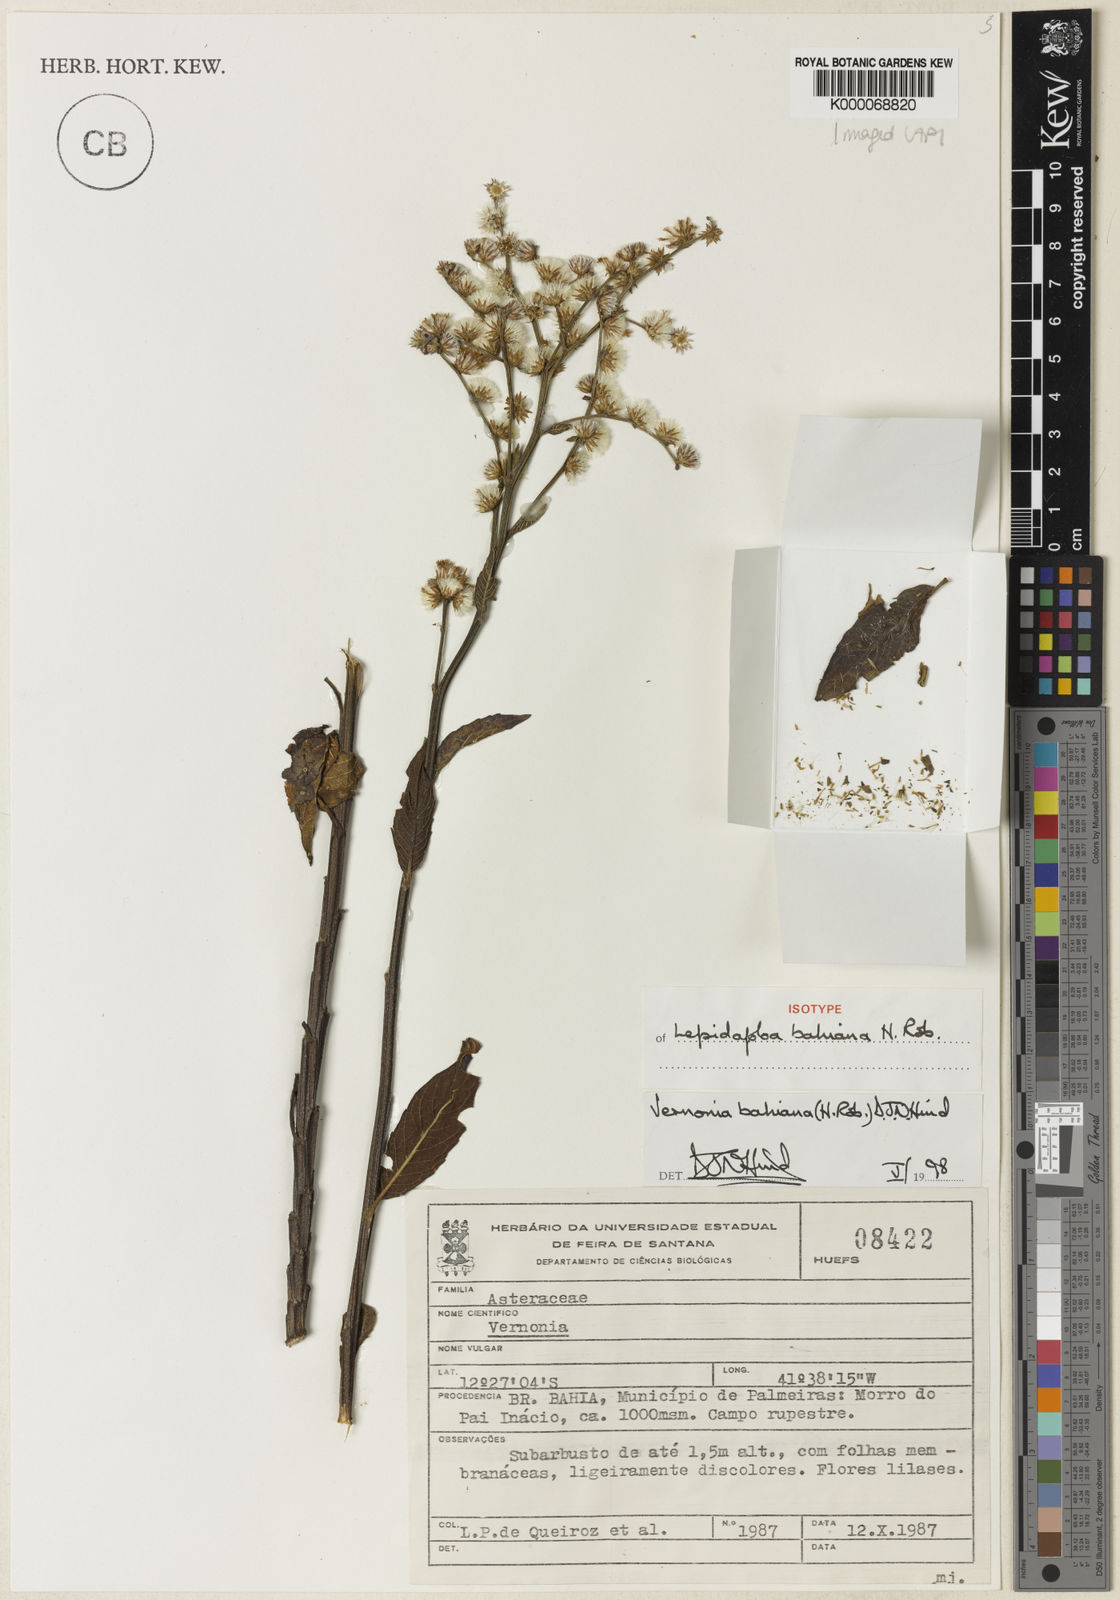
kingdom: Plantae
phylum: Tracheophyta
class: Magnoliopsida
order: Asterales
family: Asteraceae
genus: Lepidaploa
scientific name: Lepidaploa bahiana
